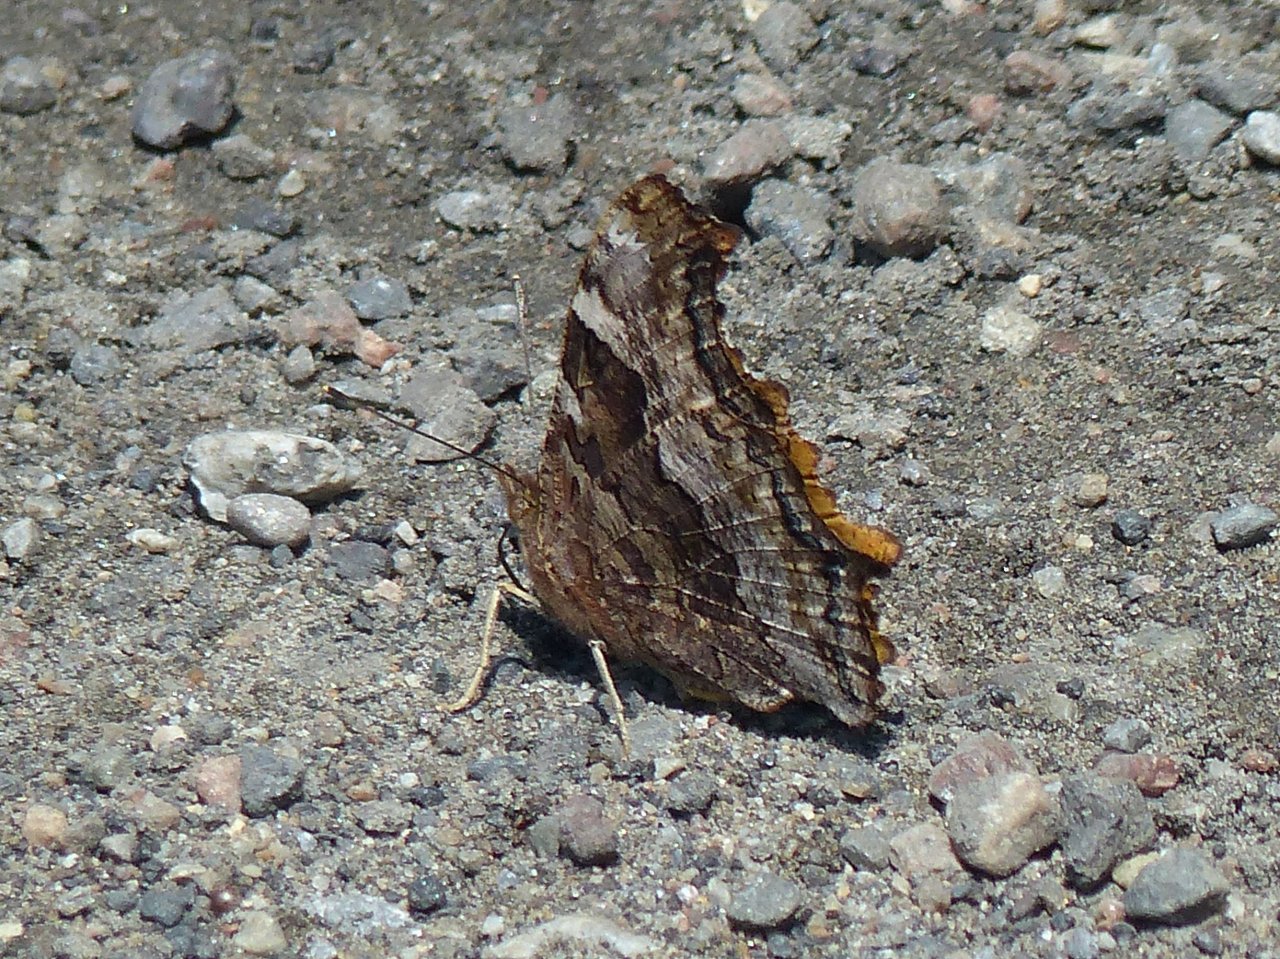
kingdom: Animalia
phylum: Arthropoda
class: Insecta
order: Lepidoptera
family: Nymphalidae
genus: Polygonia
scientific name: Polygonia vaualbum
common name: Compton Tortoiseshell
